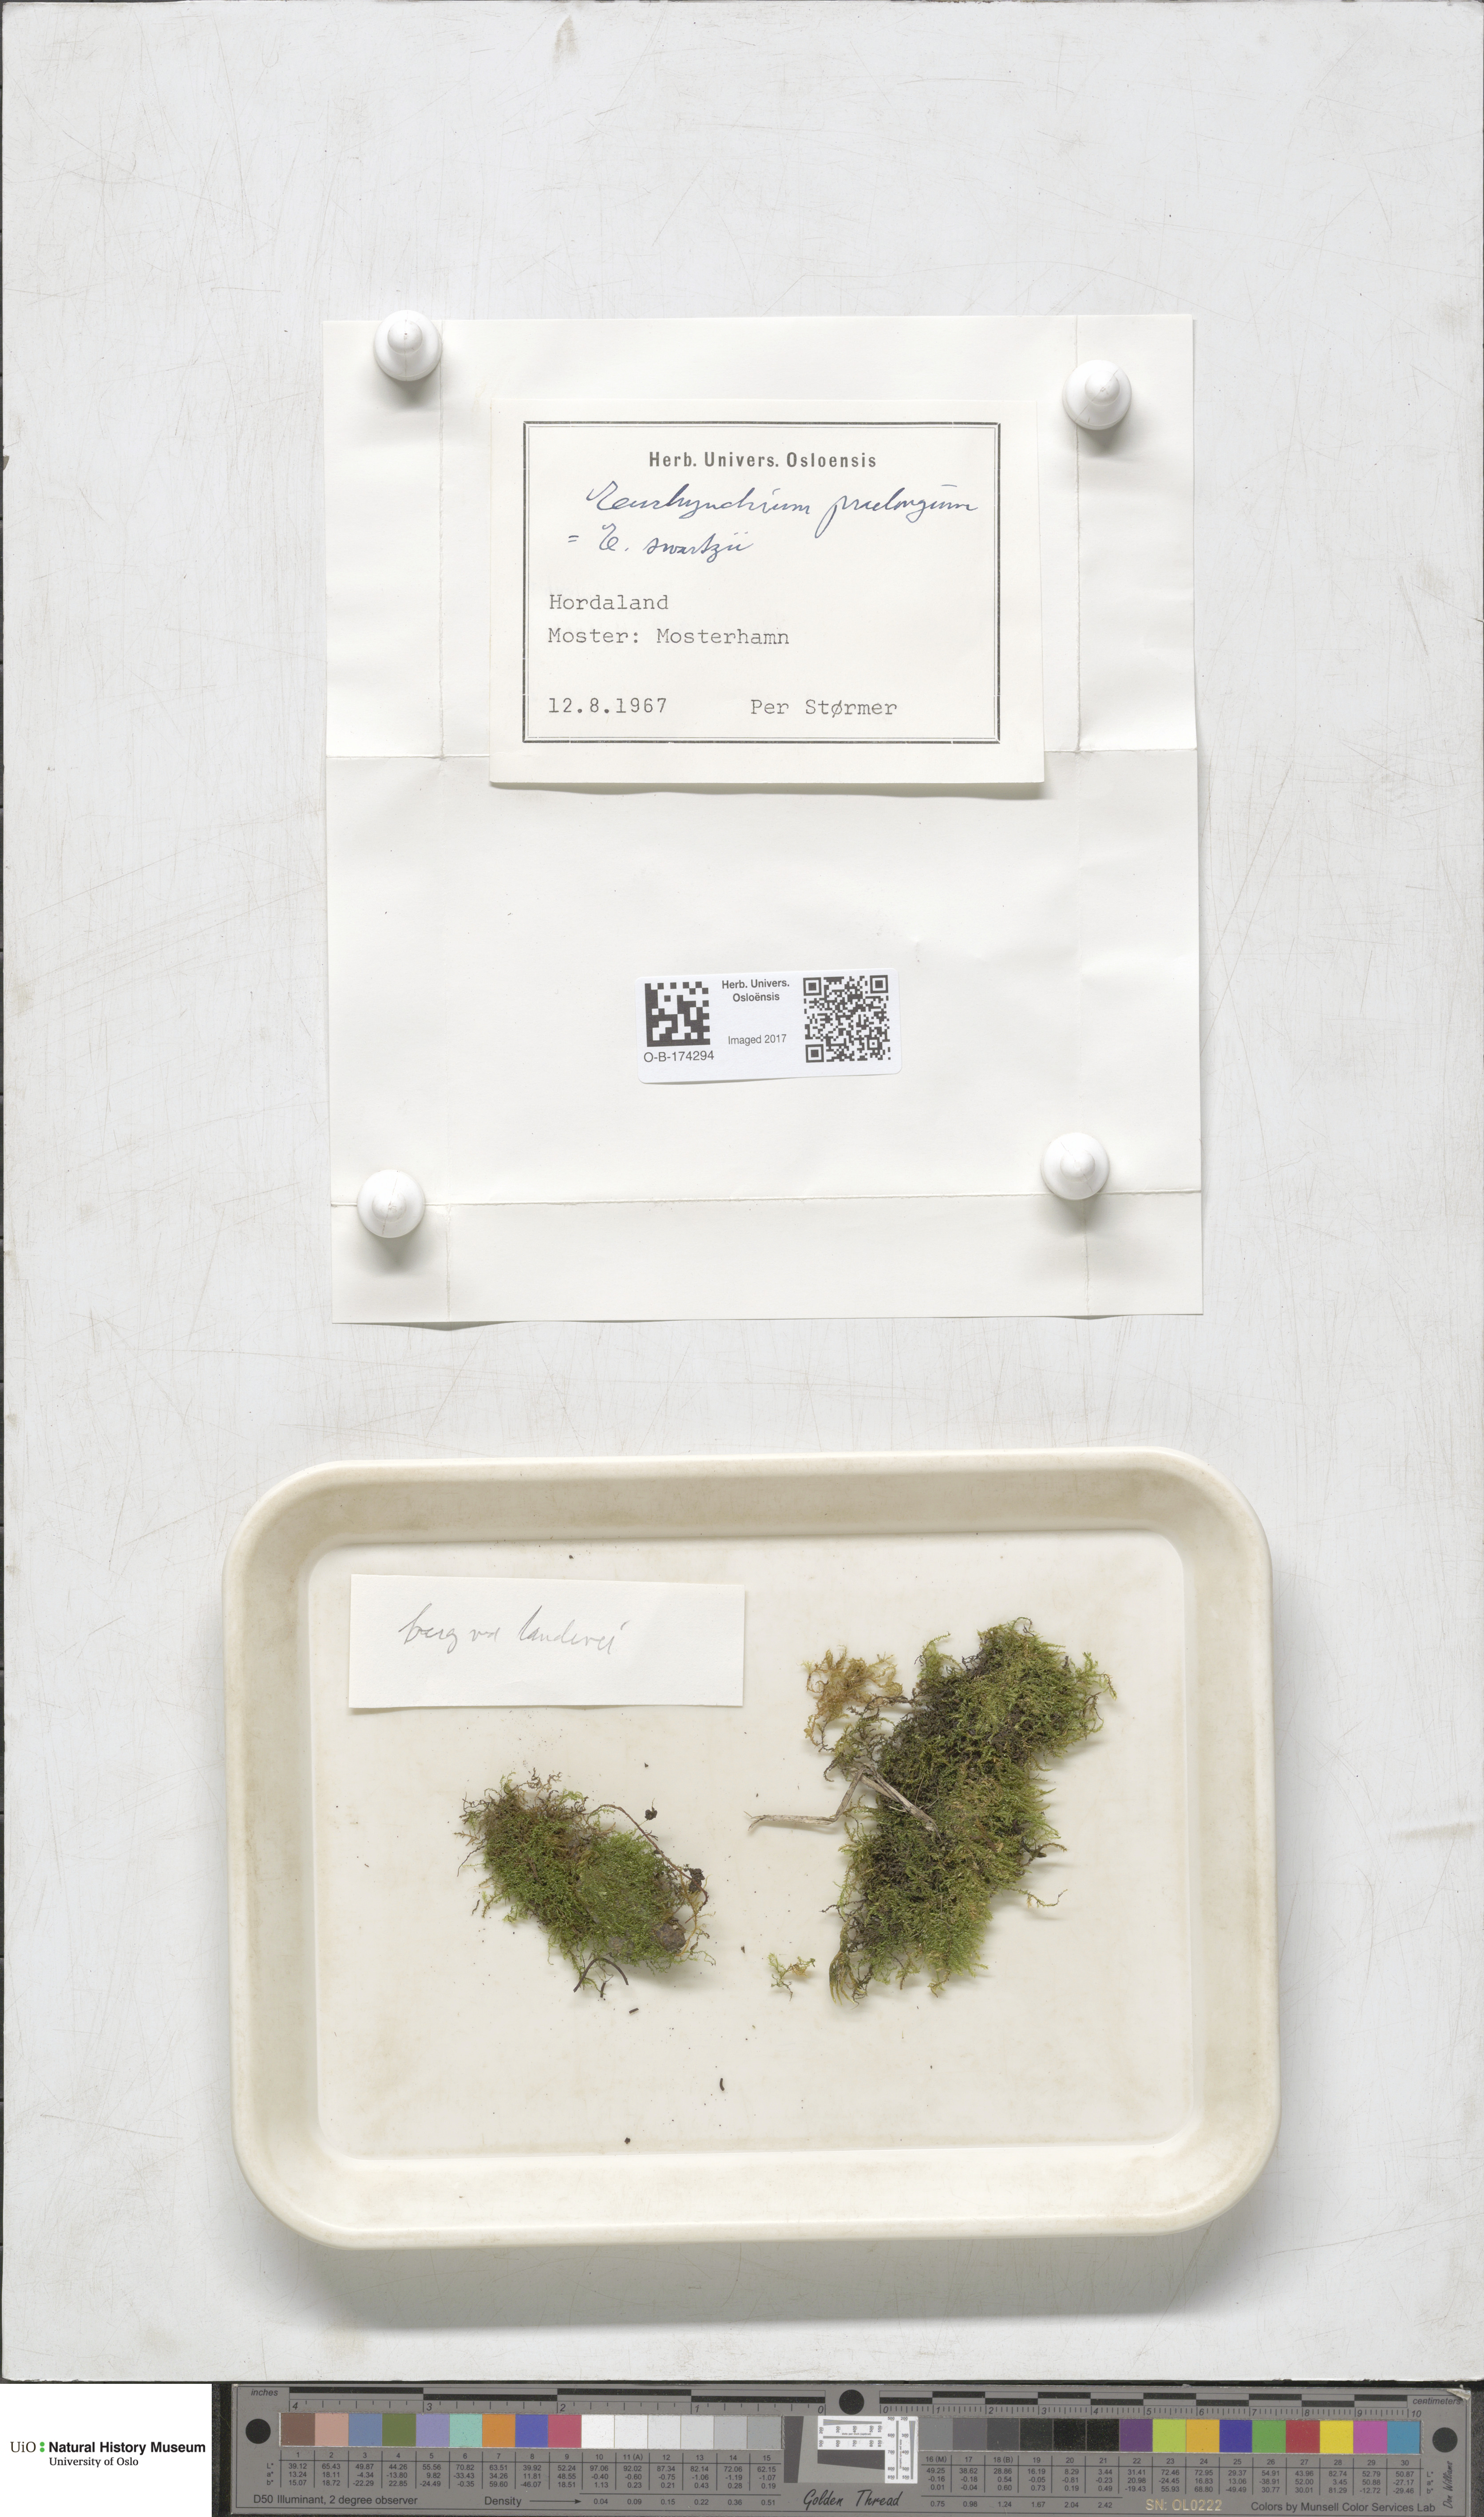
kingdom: Plantae
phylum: Bryophyta
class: Bryopsida
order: Hypnales
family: Brachytheciaceae
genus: Kindbergia
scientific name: Kindbergia praelonga
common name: Slender beaked moss
